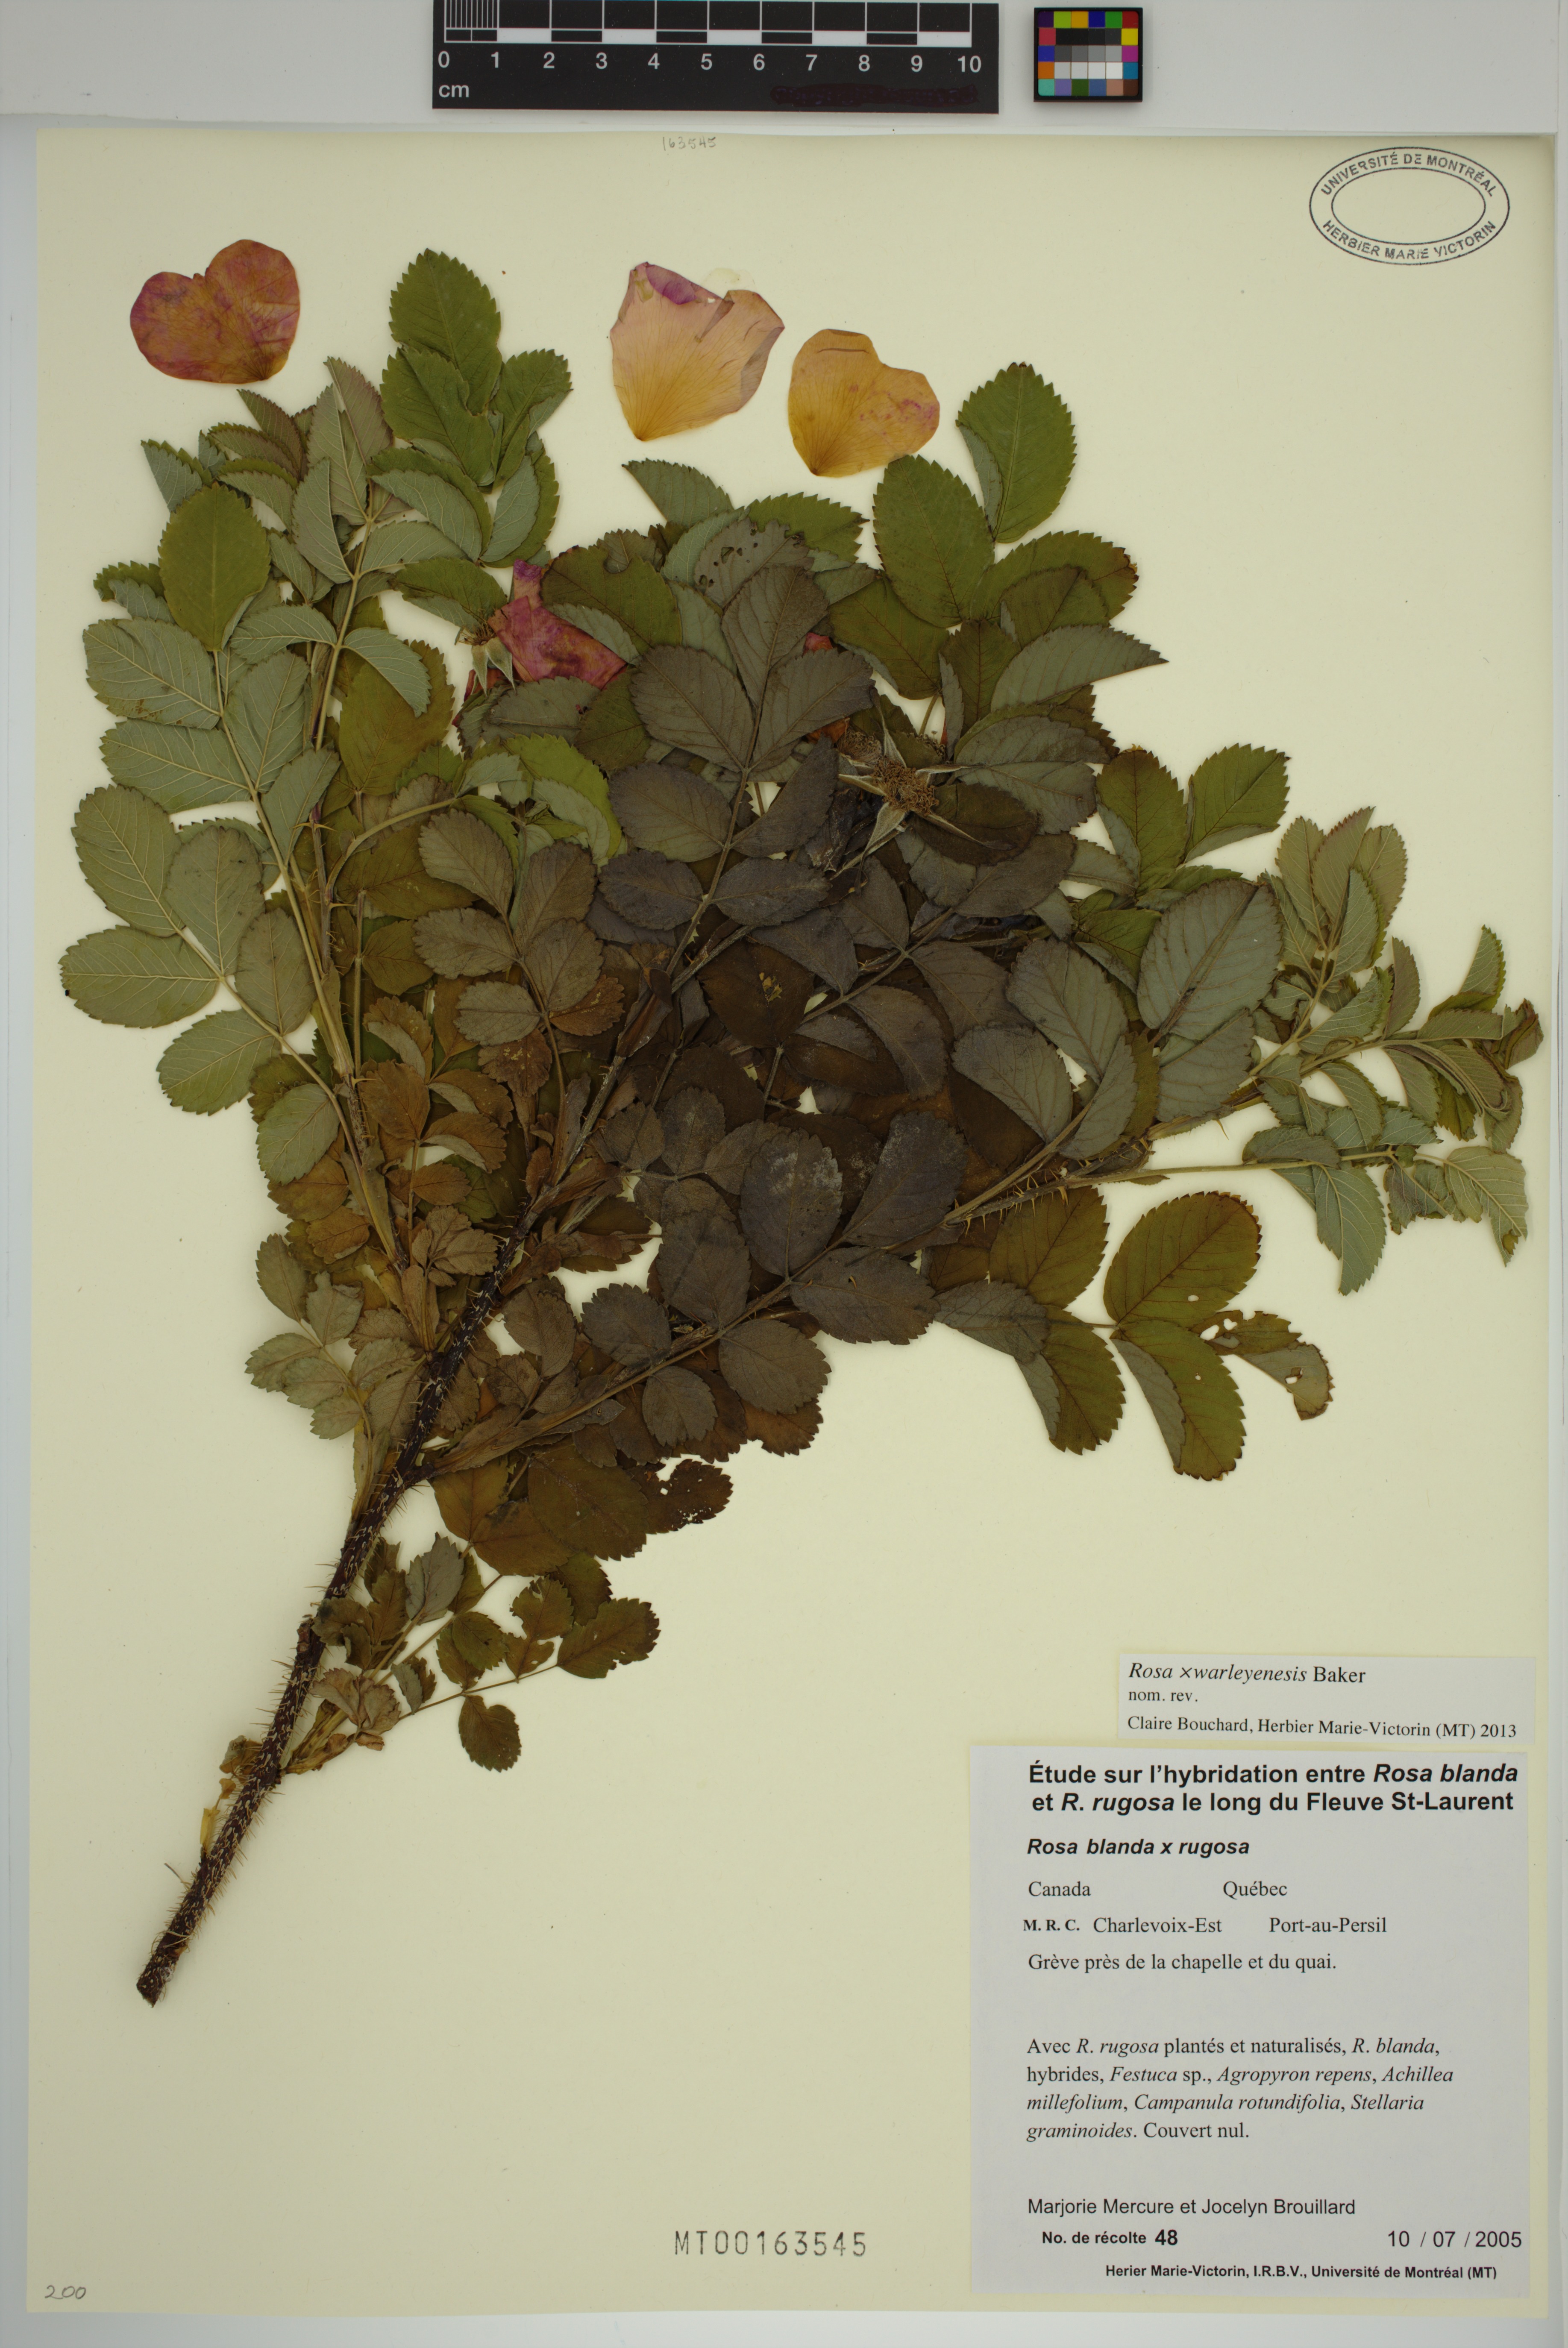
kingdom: Plantae
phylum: Tracheophyta
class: Magnoliopsida
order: Rosales
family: Rosaceae
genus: Rosa
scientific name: Rosa warleyensis
